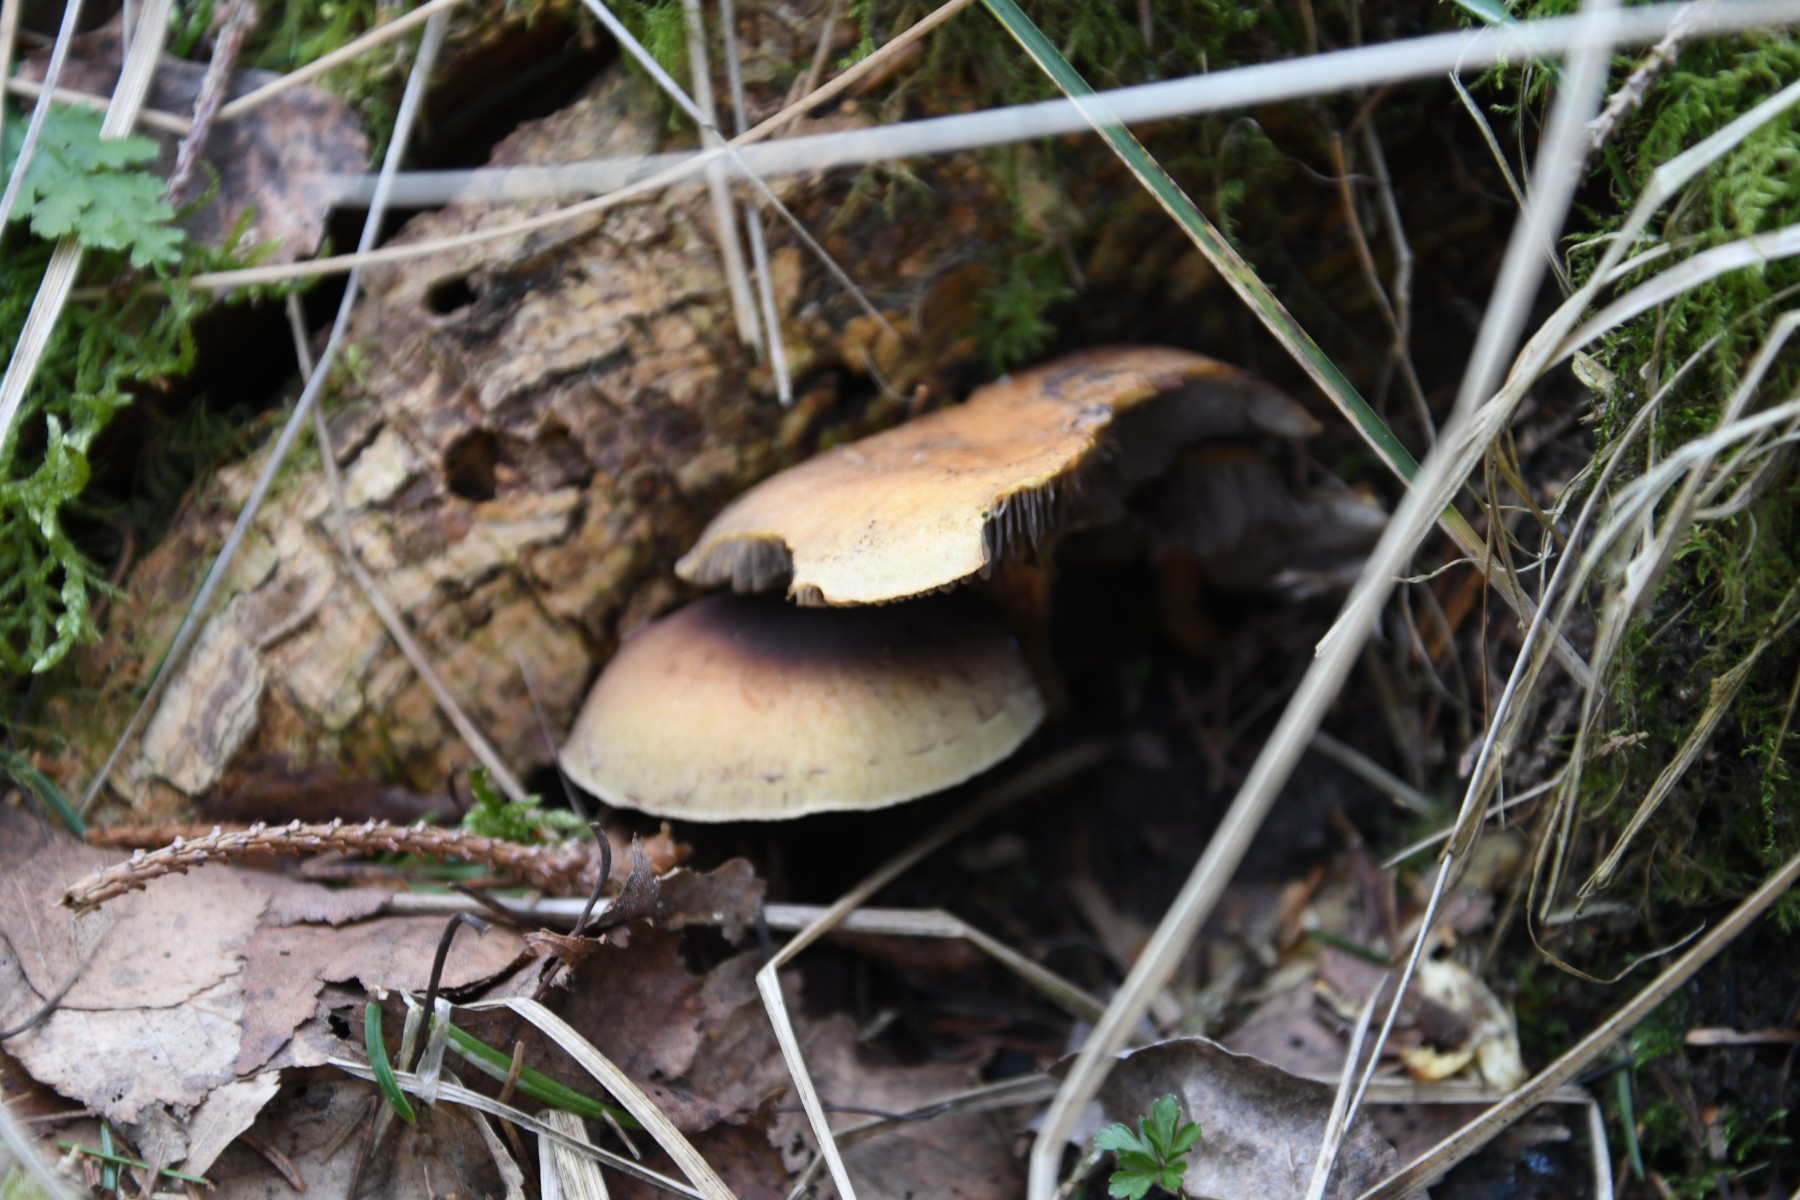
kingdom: Fungi
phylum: Basidiomycota
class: Agaricomycetes
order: Agaricales
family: Strophariaceae
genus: Hypholoma
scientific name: Hypholoma capnoides
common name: gran-svovlhat
